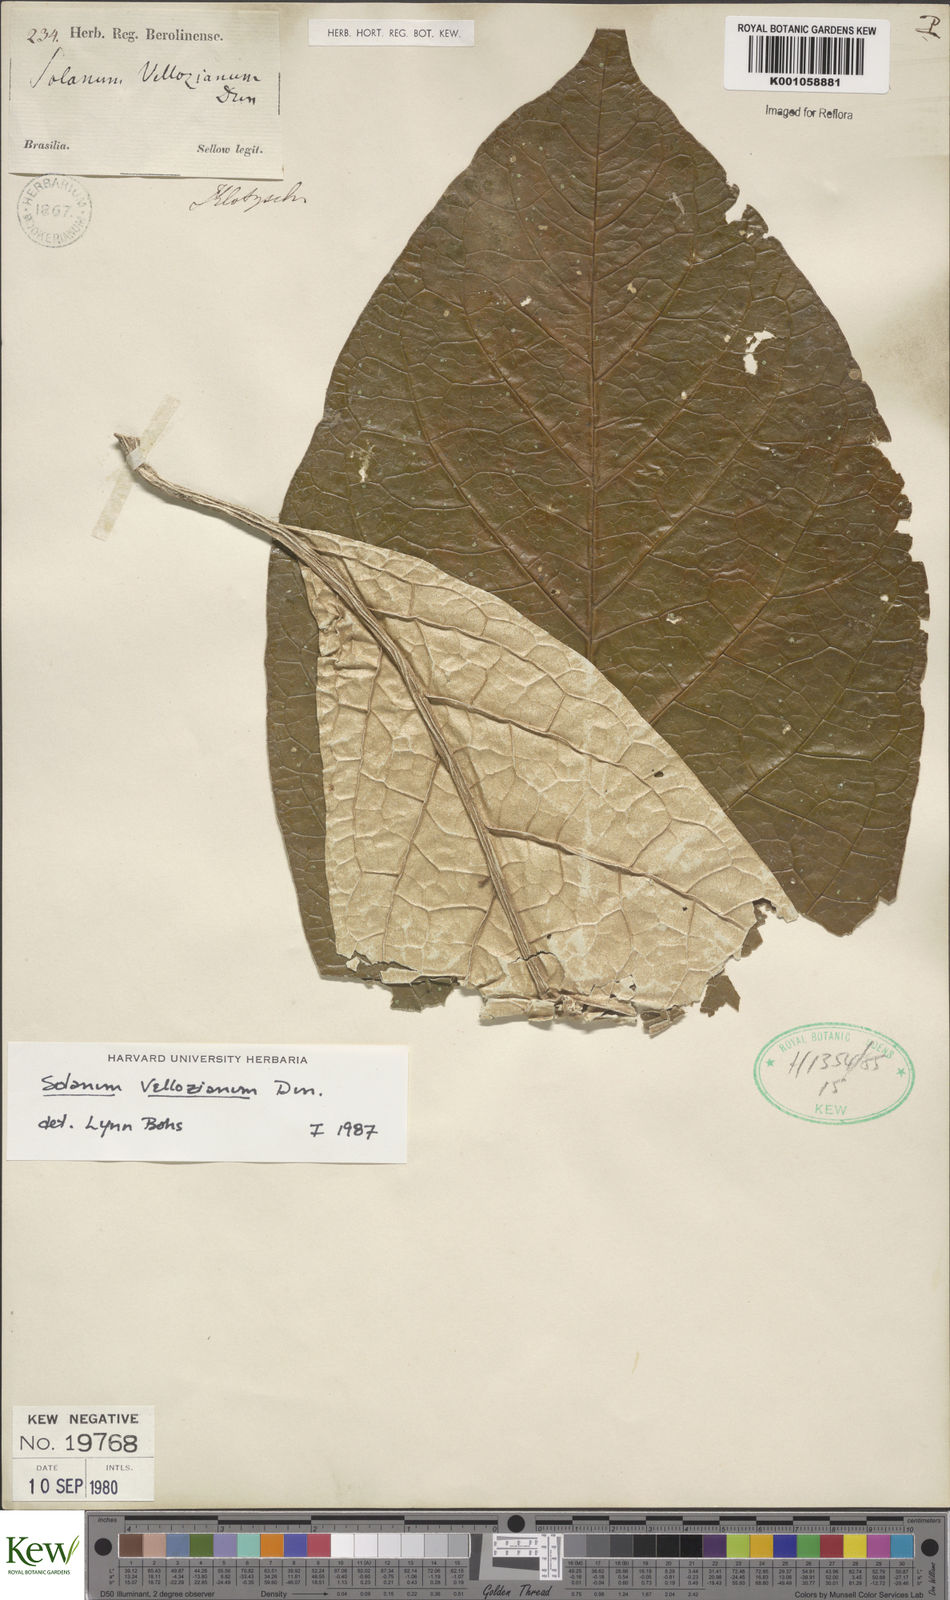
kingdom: Plantae
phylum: Tracheophyta
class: Magnoliopsida
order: Solanales
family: Solanaceae
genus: Solanum
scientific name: Solanum vellozianum
